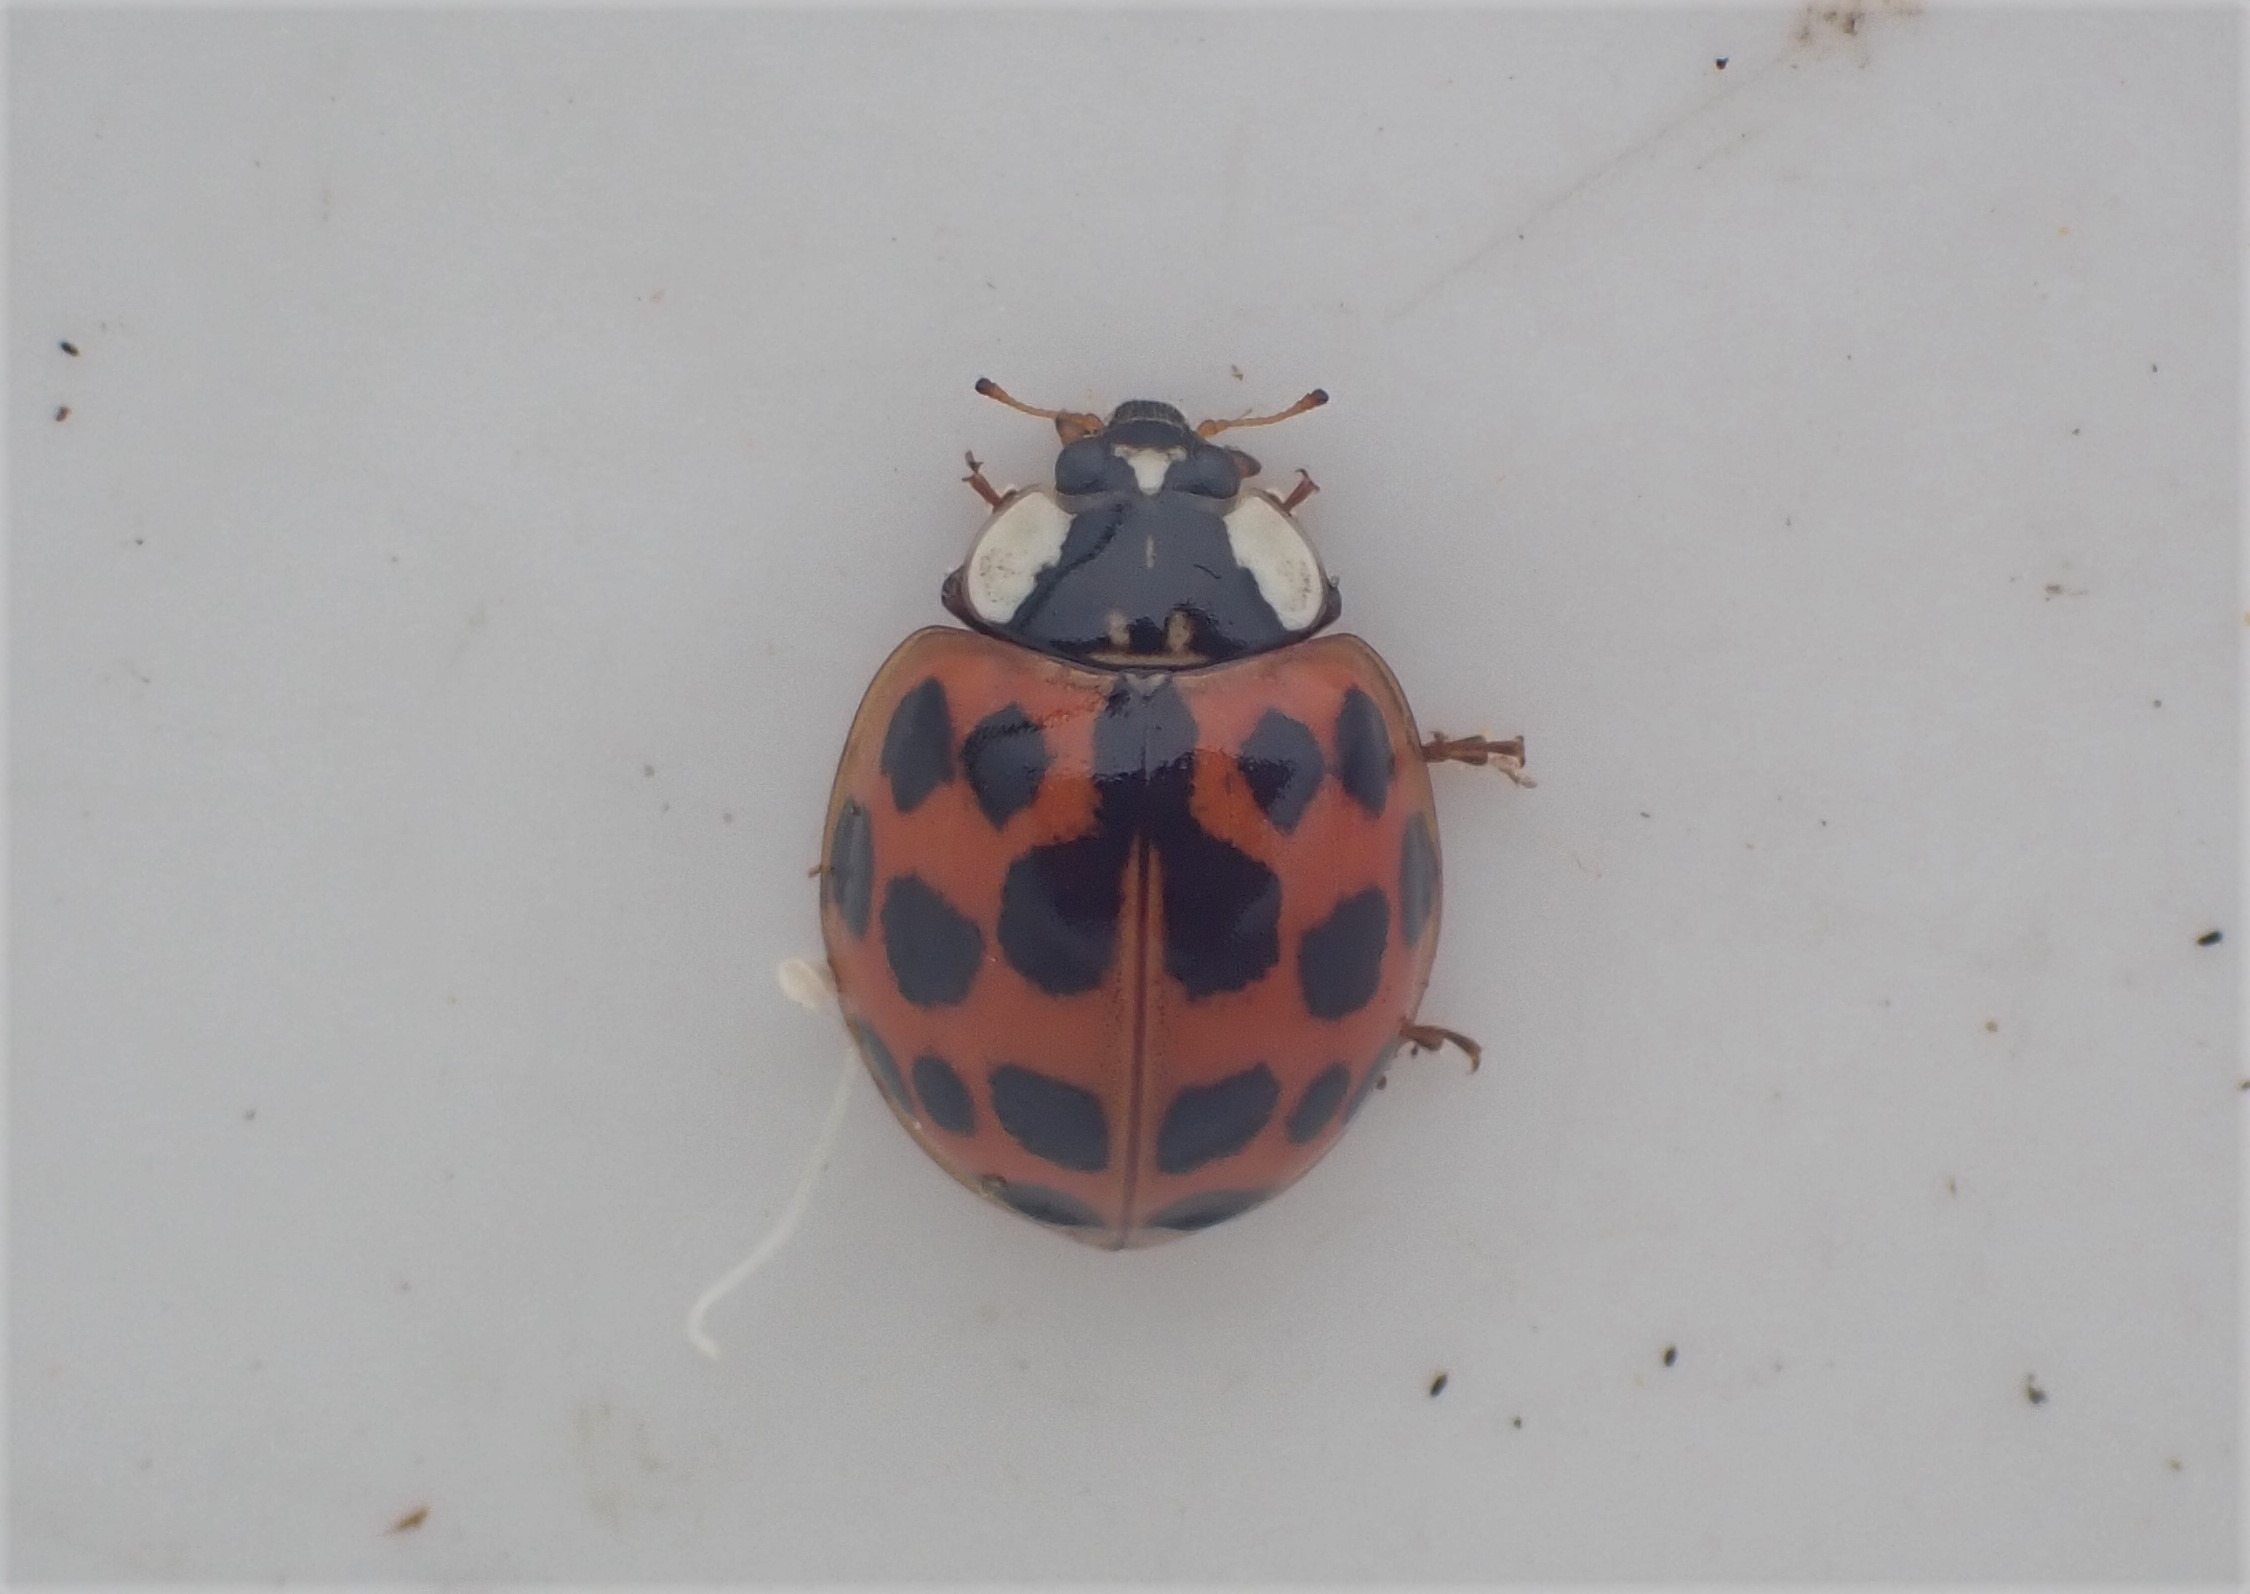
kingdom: Animalia
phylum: Arthropoda
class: Insecta
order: Coleoptera
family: Coccinellidae
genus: Harmonia
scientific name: Harmonia axyridis
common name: Harlekinmariehøne
